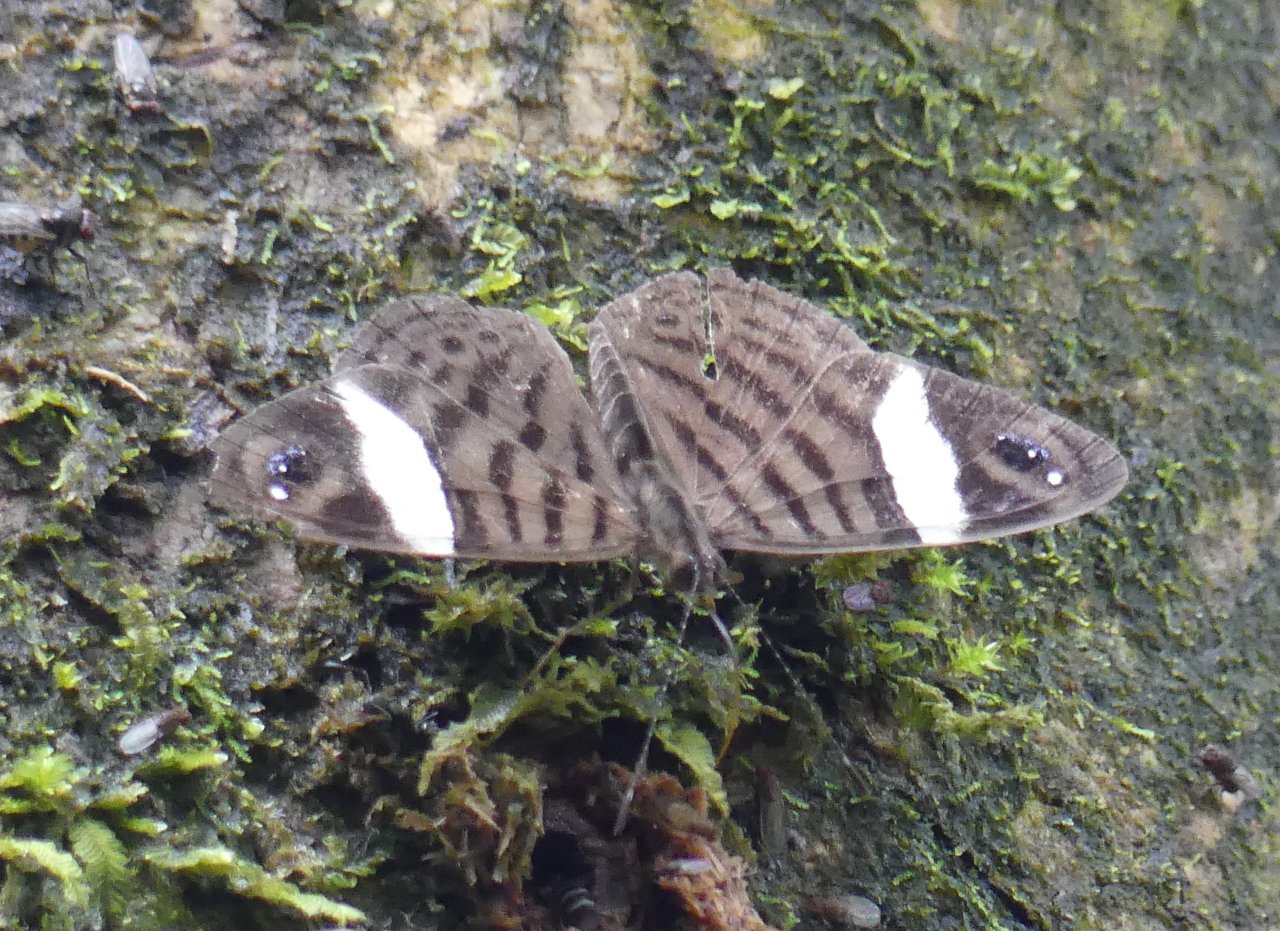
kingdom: Animalia
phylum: Arthropoda
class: Insecta
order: Lepidoptera
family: Nymphalidae
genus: Ectima
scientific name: Ectima erycinoides
